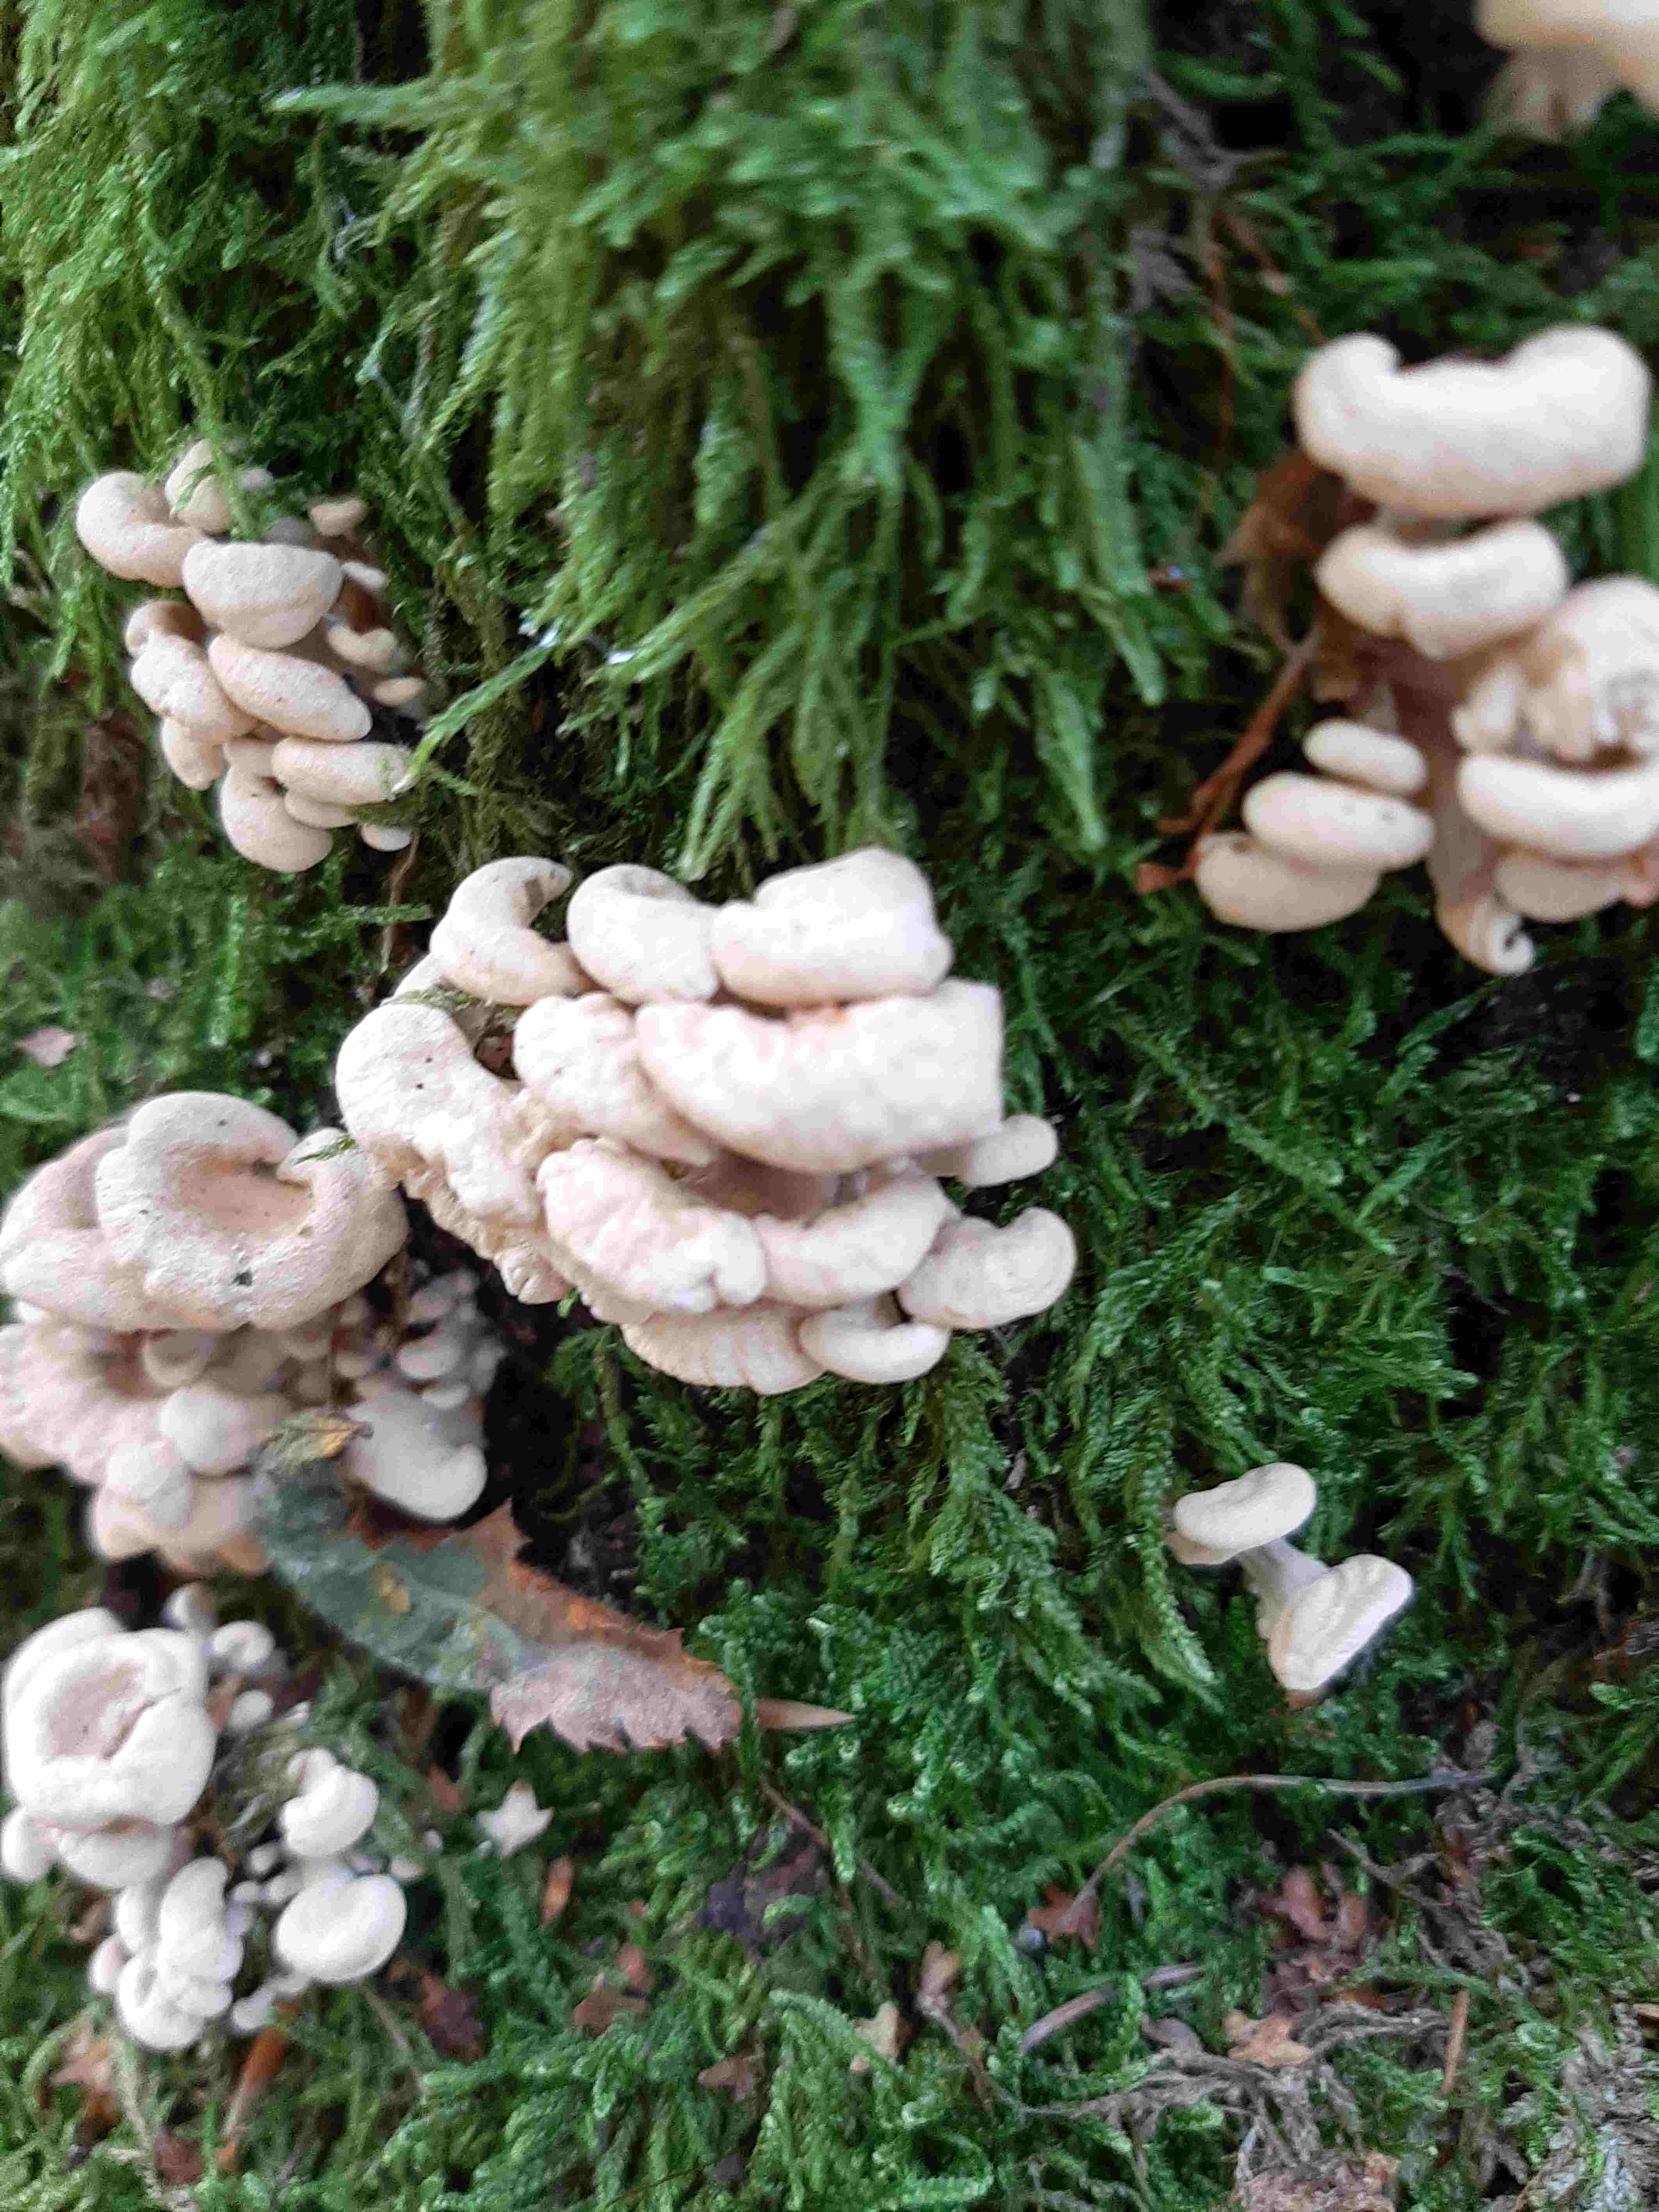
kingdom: Fungi
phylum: Basidiomycota
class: Agaricomycetes
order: Agaricales
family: Mycenaceae
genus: Panellus
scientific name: Panellus stipticus
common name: kliddet epaulethat
